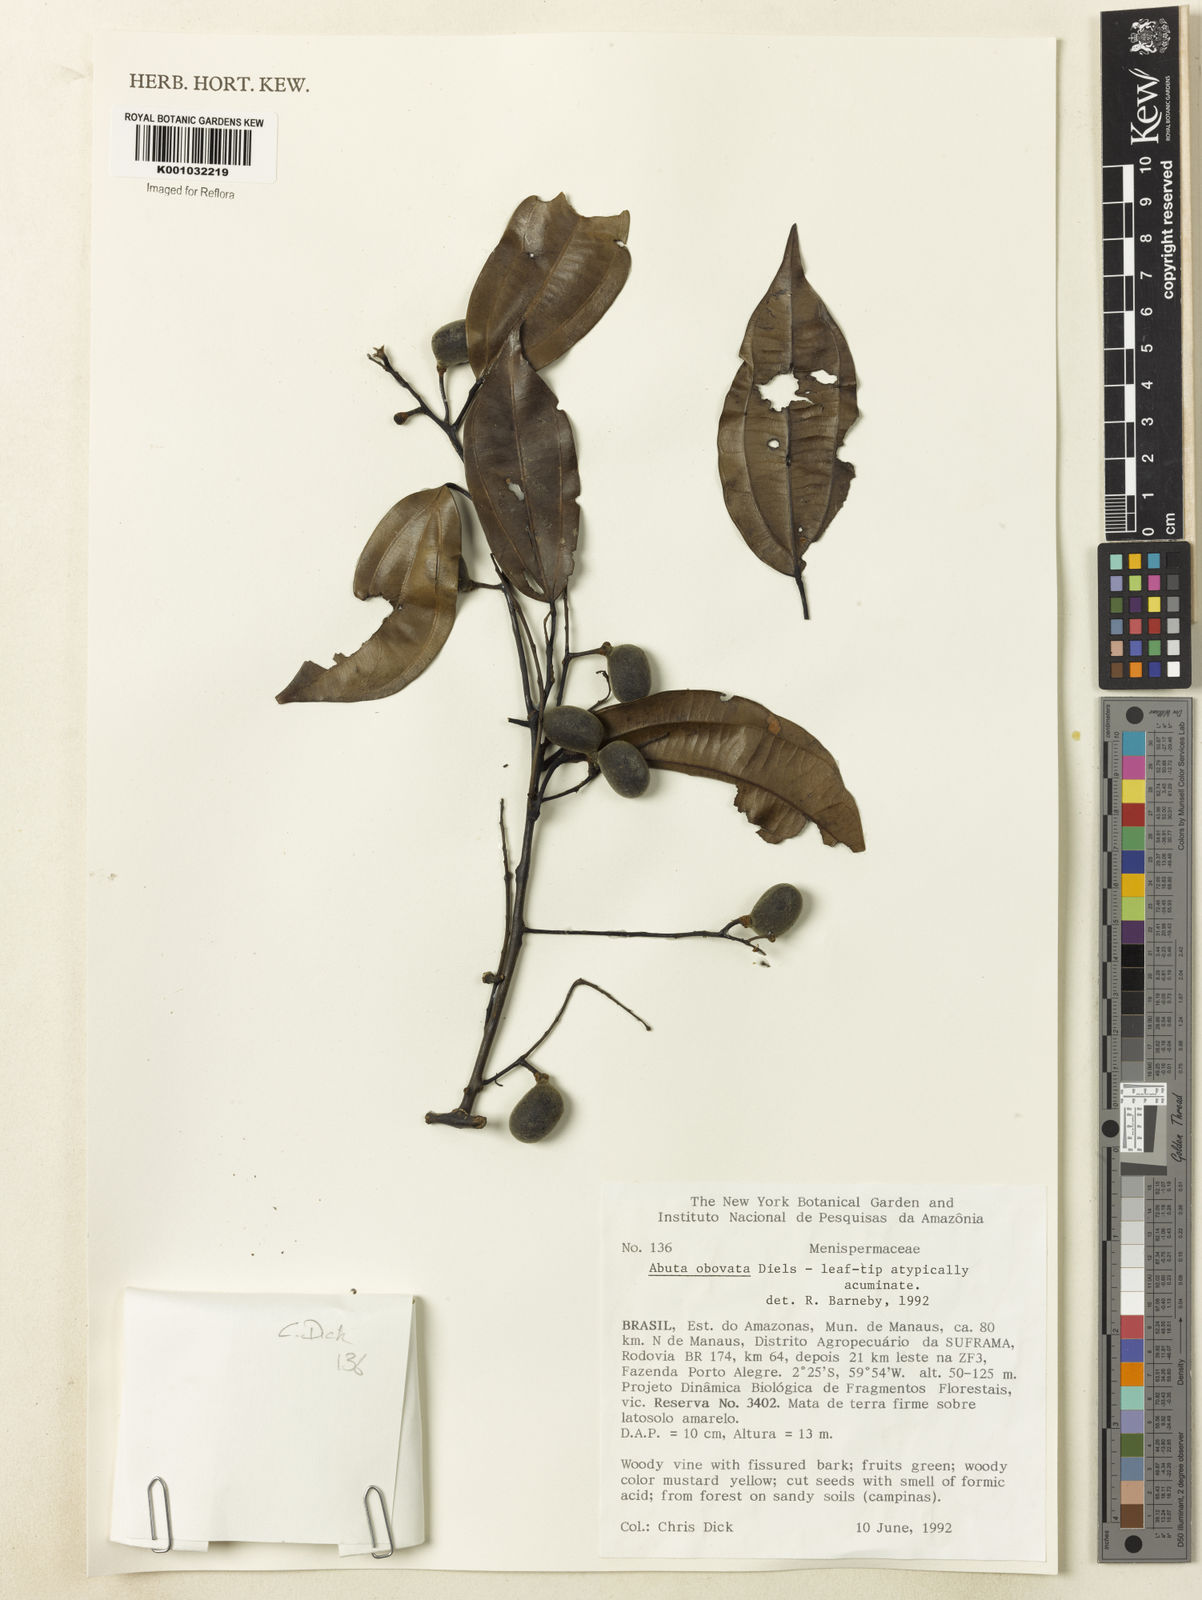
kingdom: Plantae
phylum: Tracheophyta
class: Magnoliopsida
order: Ranunculales
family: Menispermaceae
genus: Abuta
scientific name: Abuta obovata
